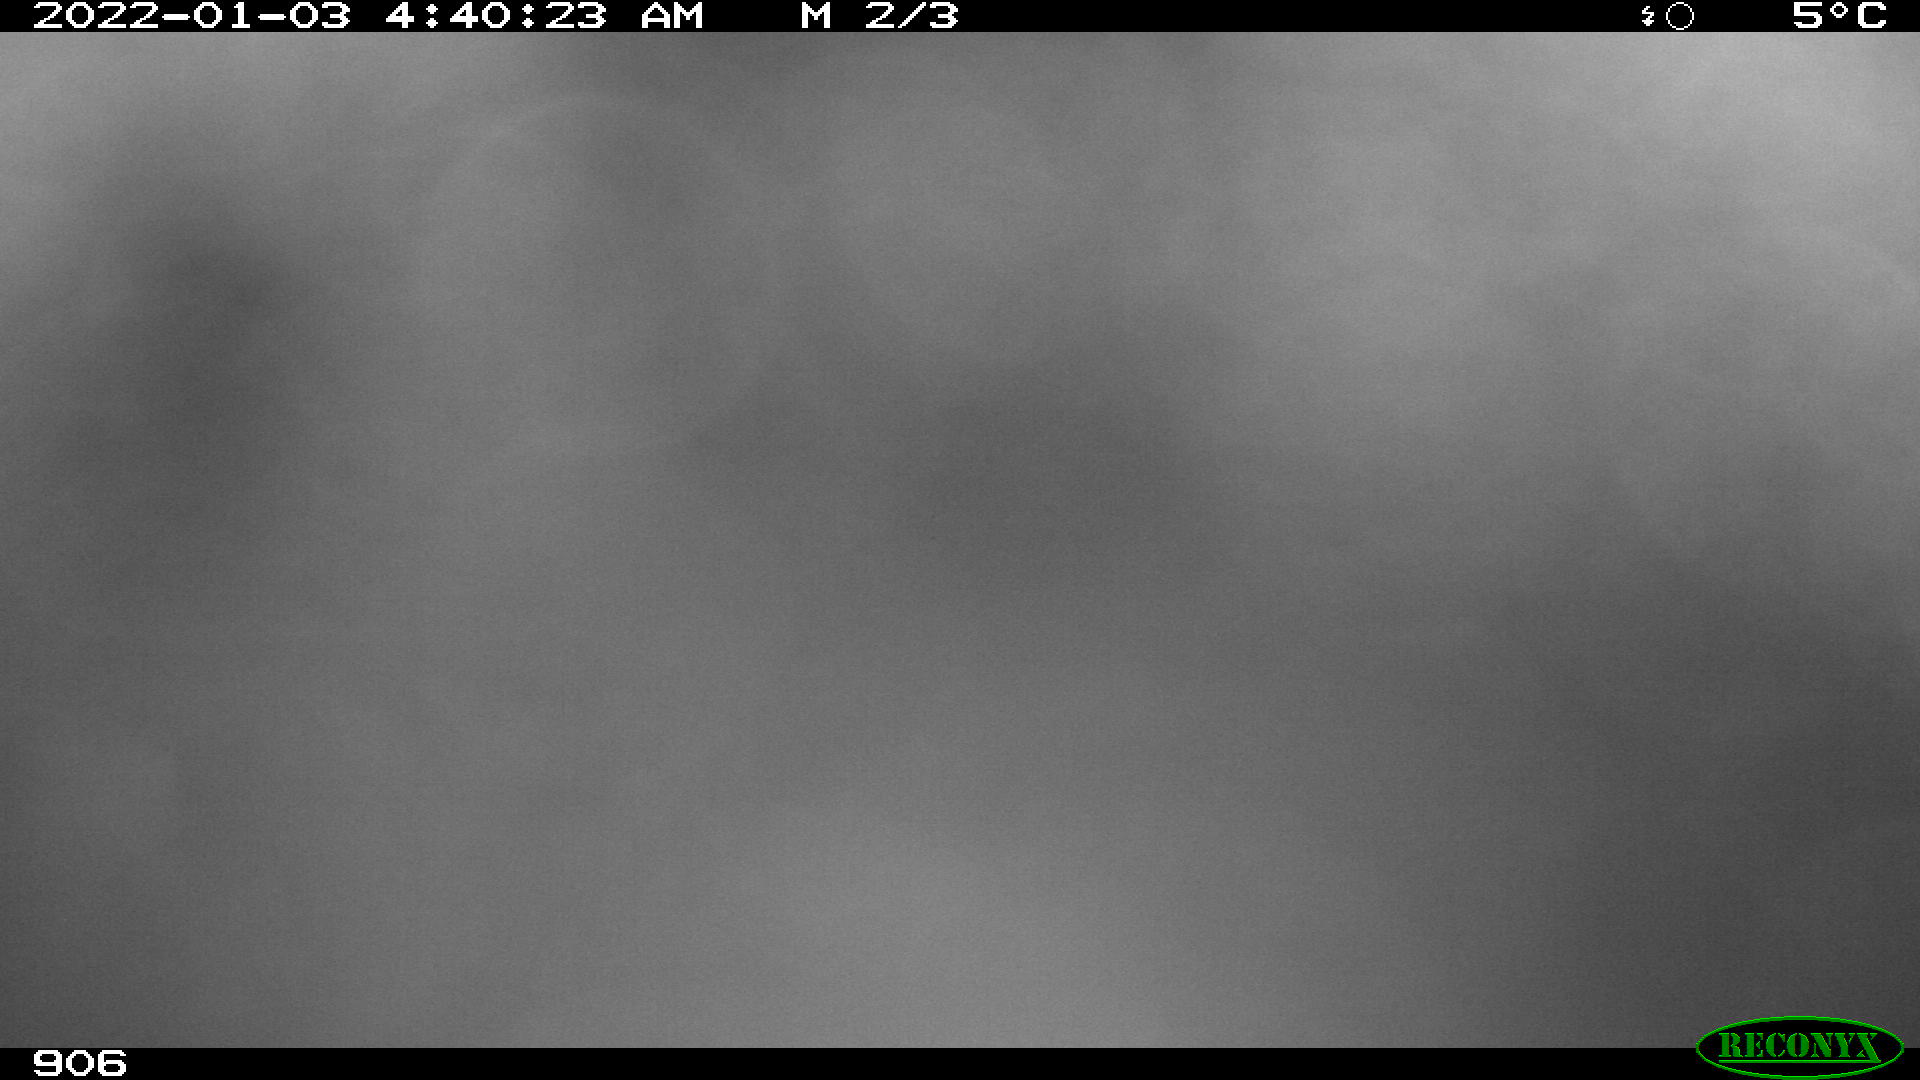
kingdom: Animalia
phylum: Chordata
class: Mammalia
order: Perissodactyla
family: Equidae
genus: Equus
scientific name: Equus caballus
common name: Horse
